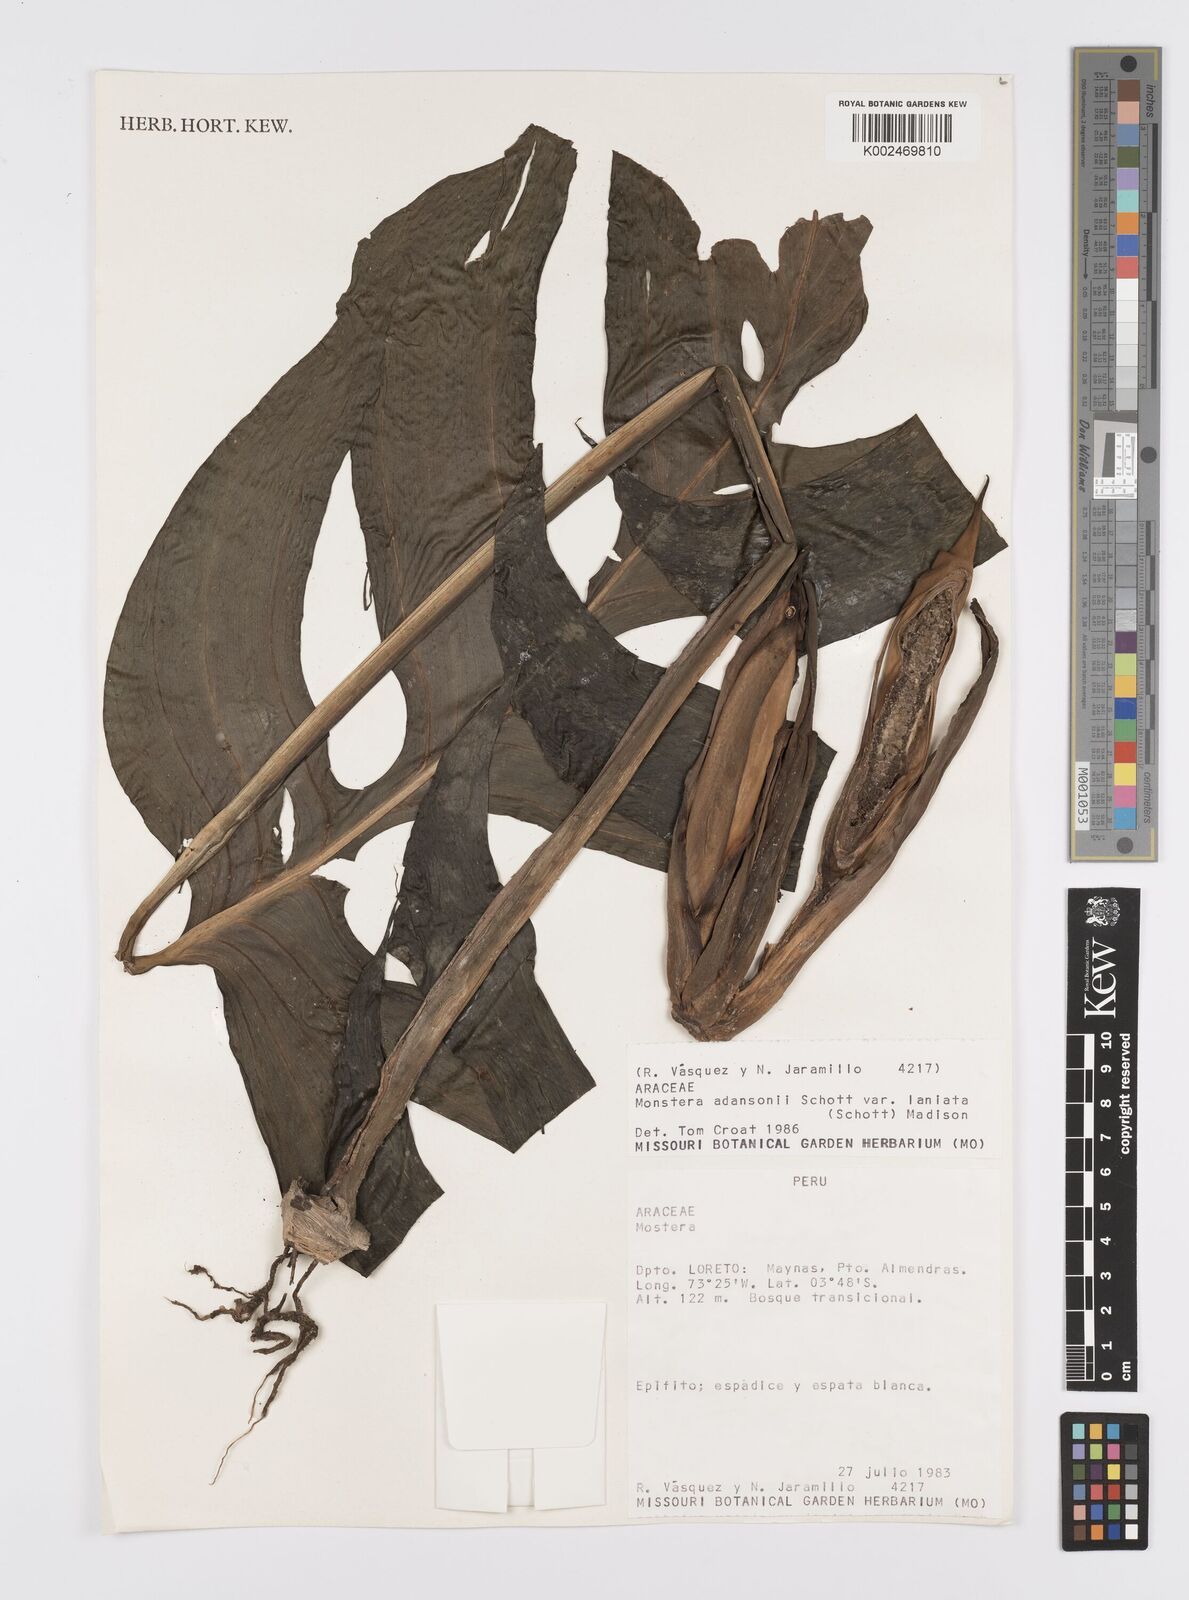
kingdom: Plantae
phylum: Tracheophyta
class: Liliopsida
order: Alismatales
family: Araceae
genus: Monstera
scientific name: Monstera adansonii
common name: Tarovine
